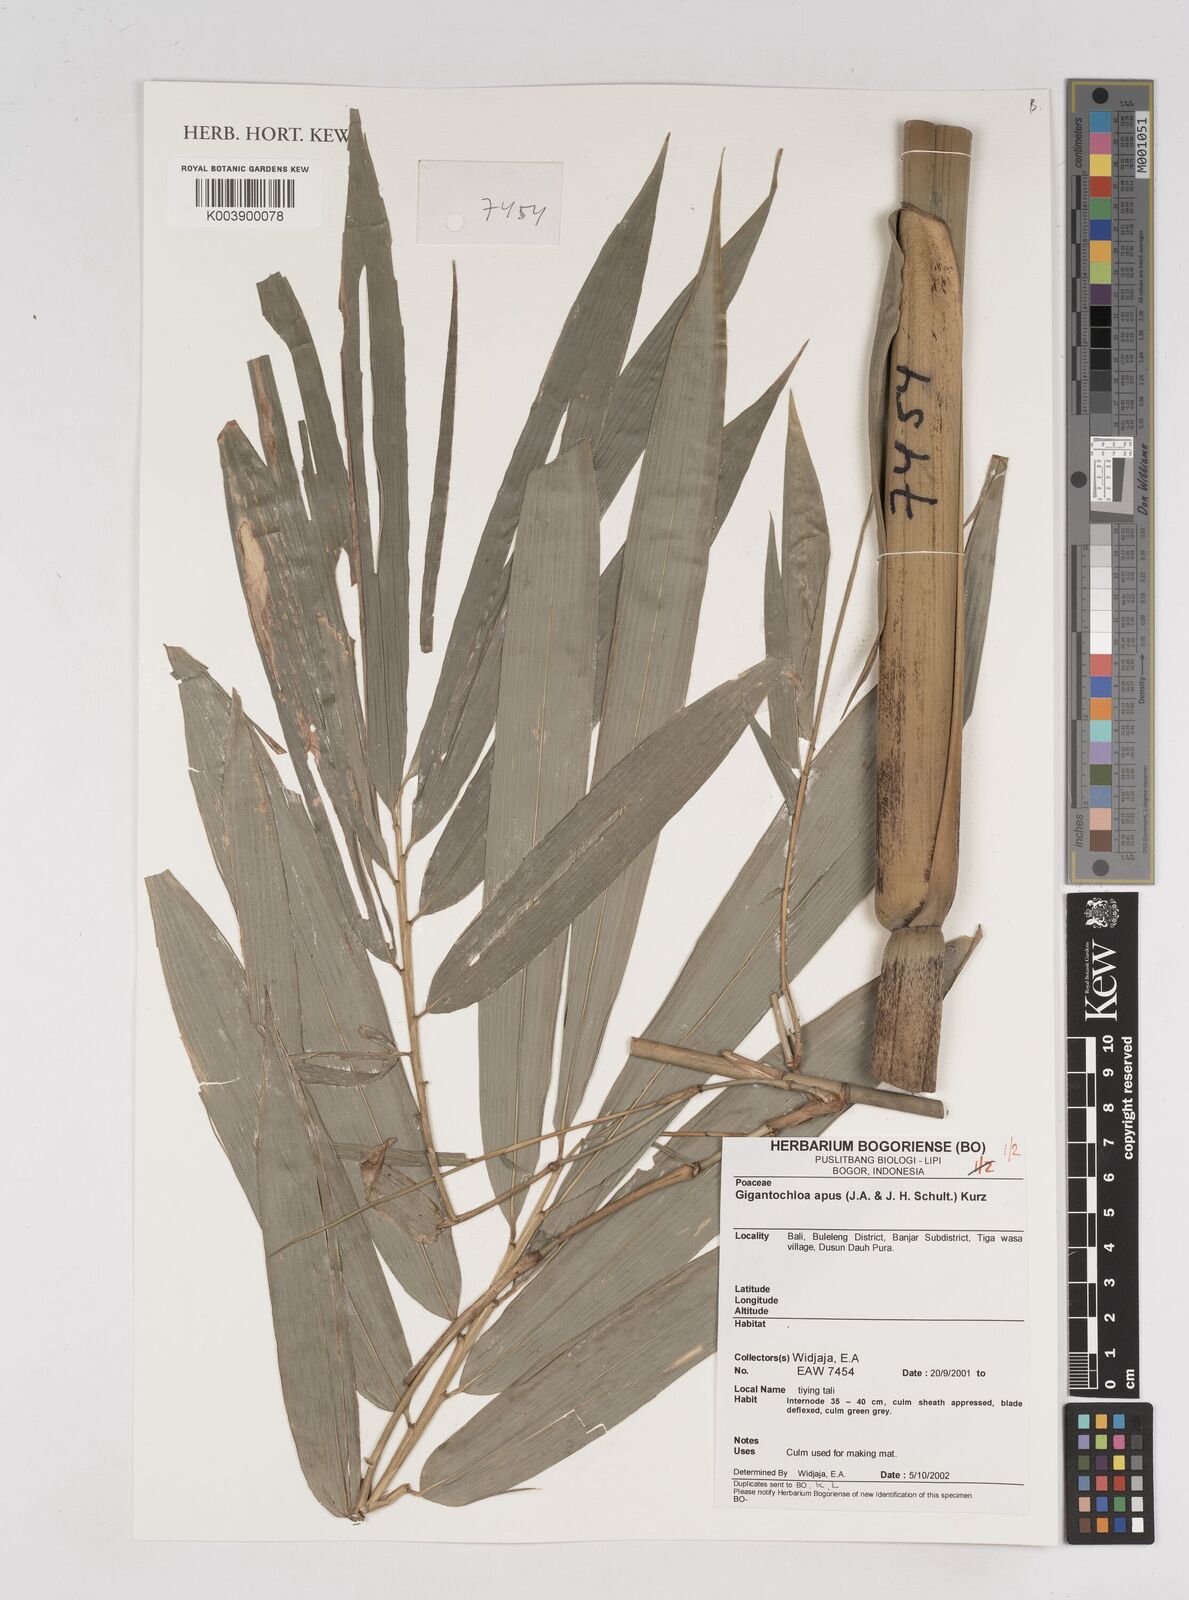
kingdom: Plantae
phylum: Tracheophyta
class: Liliopsida
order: Poales
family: Poaceae
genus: Gigantochloa
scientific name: Gigantochloa apus
